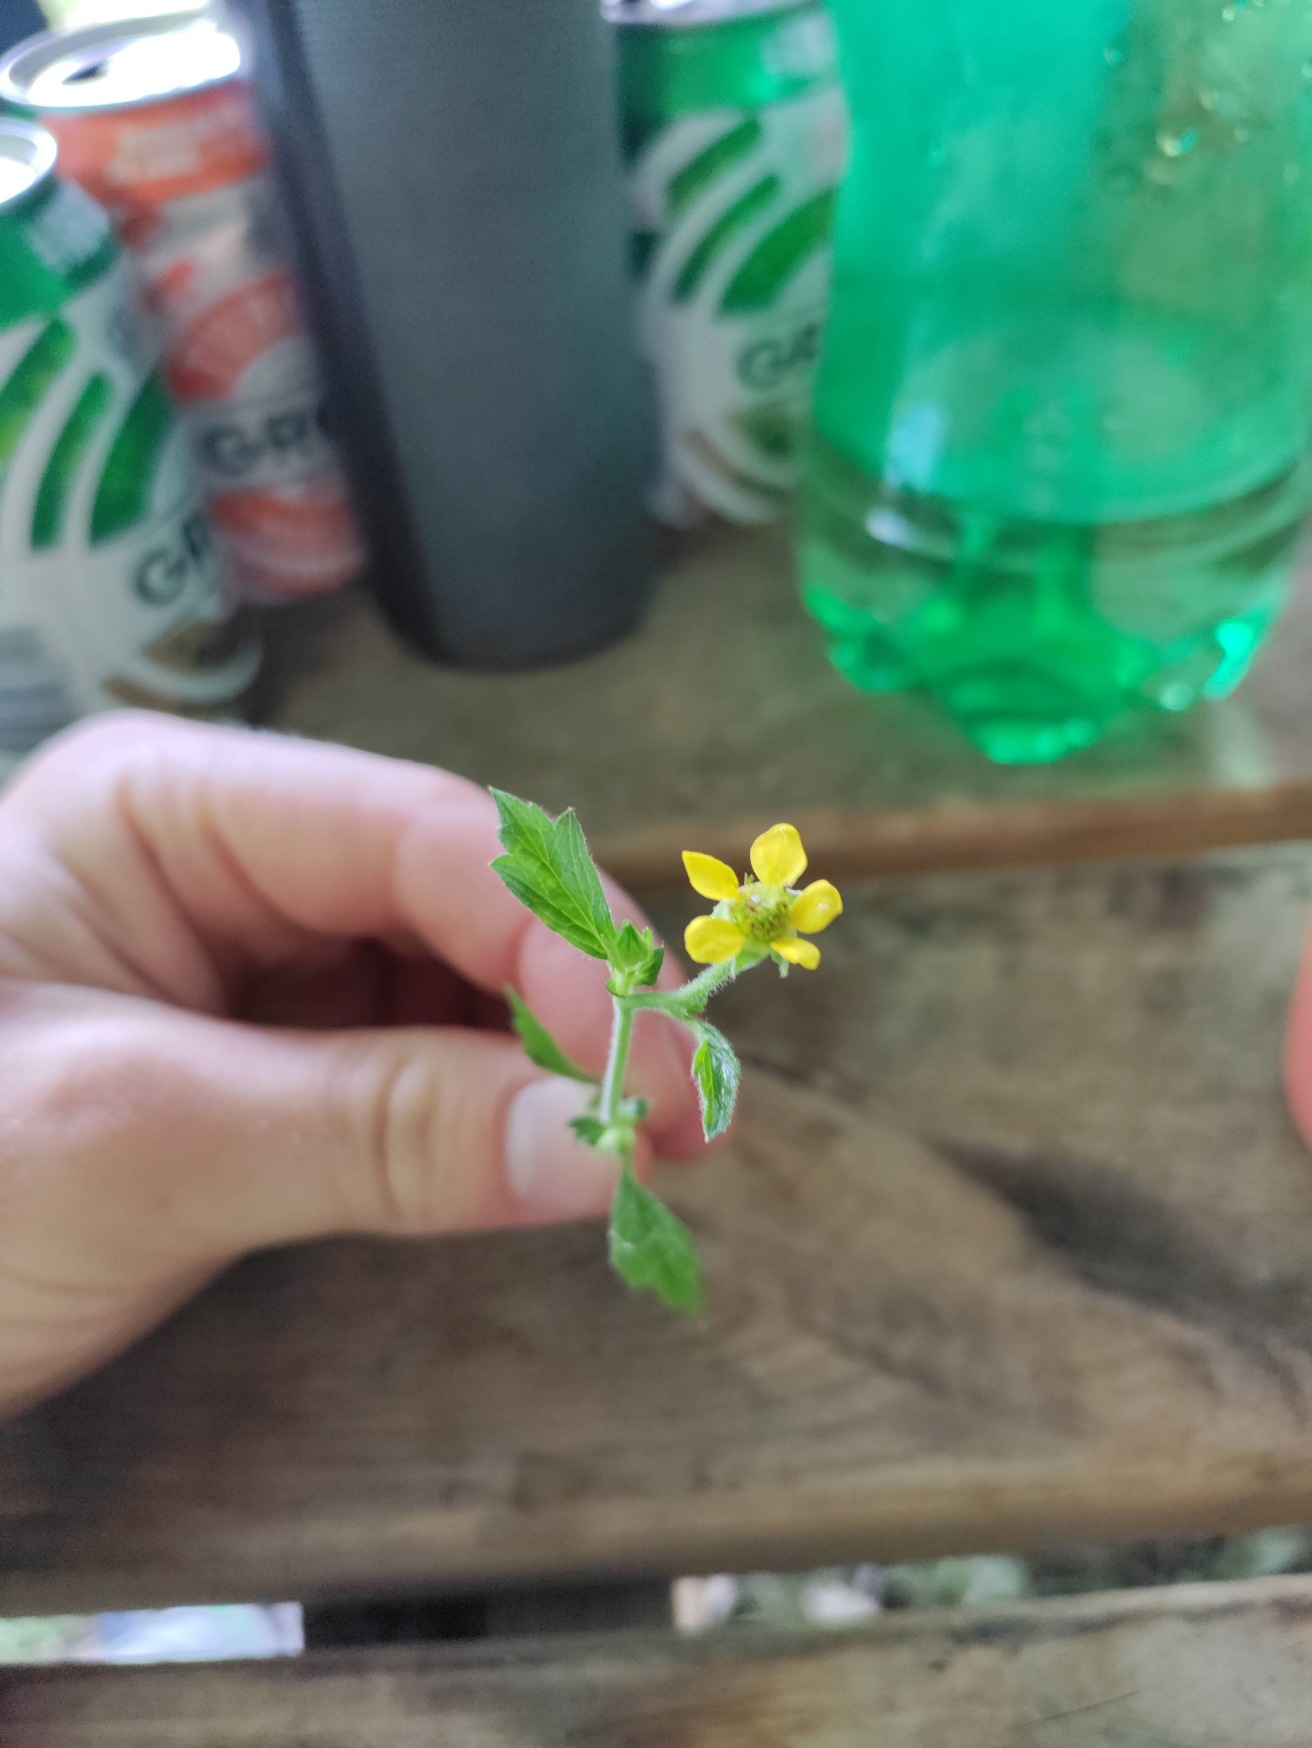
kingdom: Plantae
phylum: Tracheophyta
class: Magnoliopsida
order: Rosales
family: Rosaceae
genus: Geum
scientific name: Geum urbanum
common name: Feber-nellikerod
